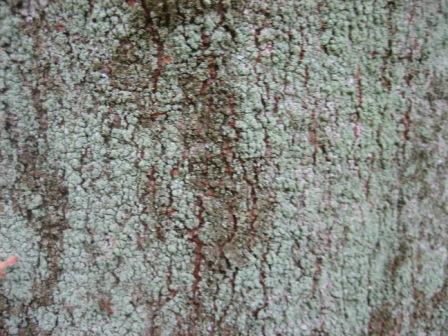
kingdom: Fungi
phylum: Ascomycota
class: Lecanoromycetes
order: Lecanorales
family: Stereocaulaceae
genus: Lepraria
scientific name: Lepraria incana
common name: almindelig støvlav
